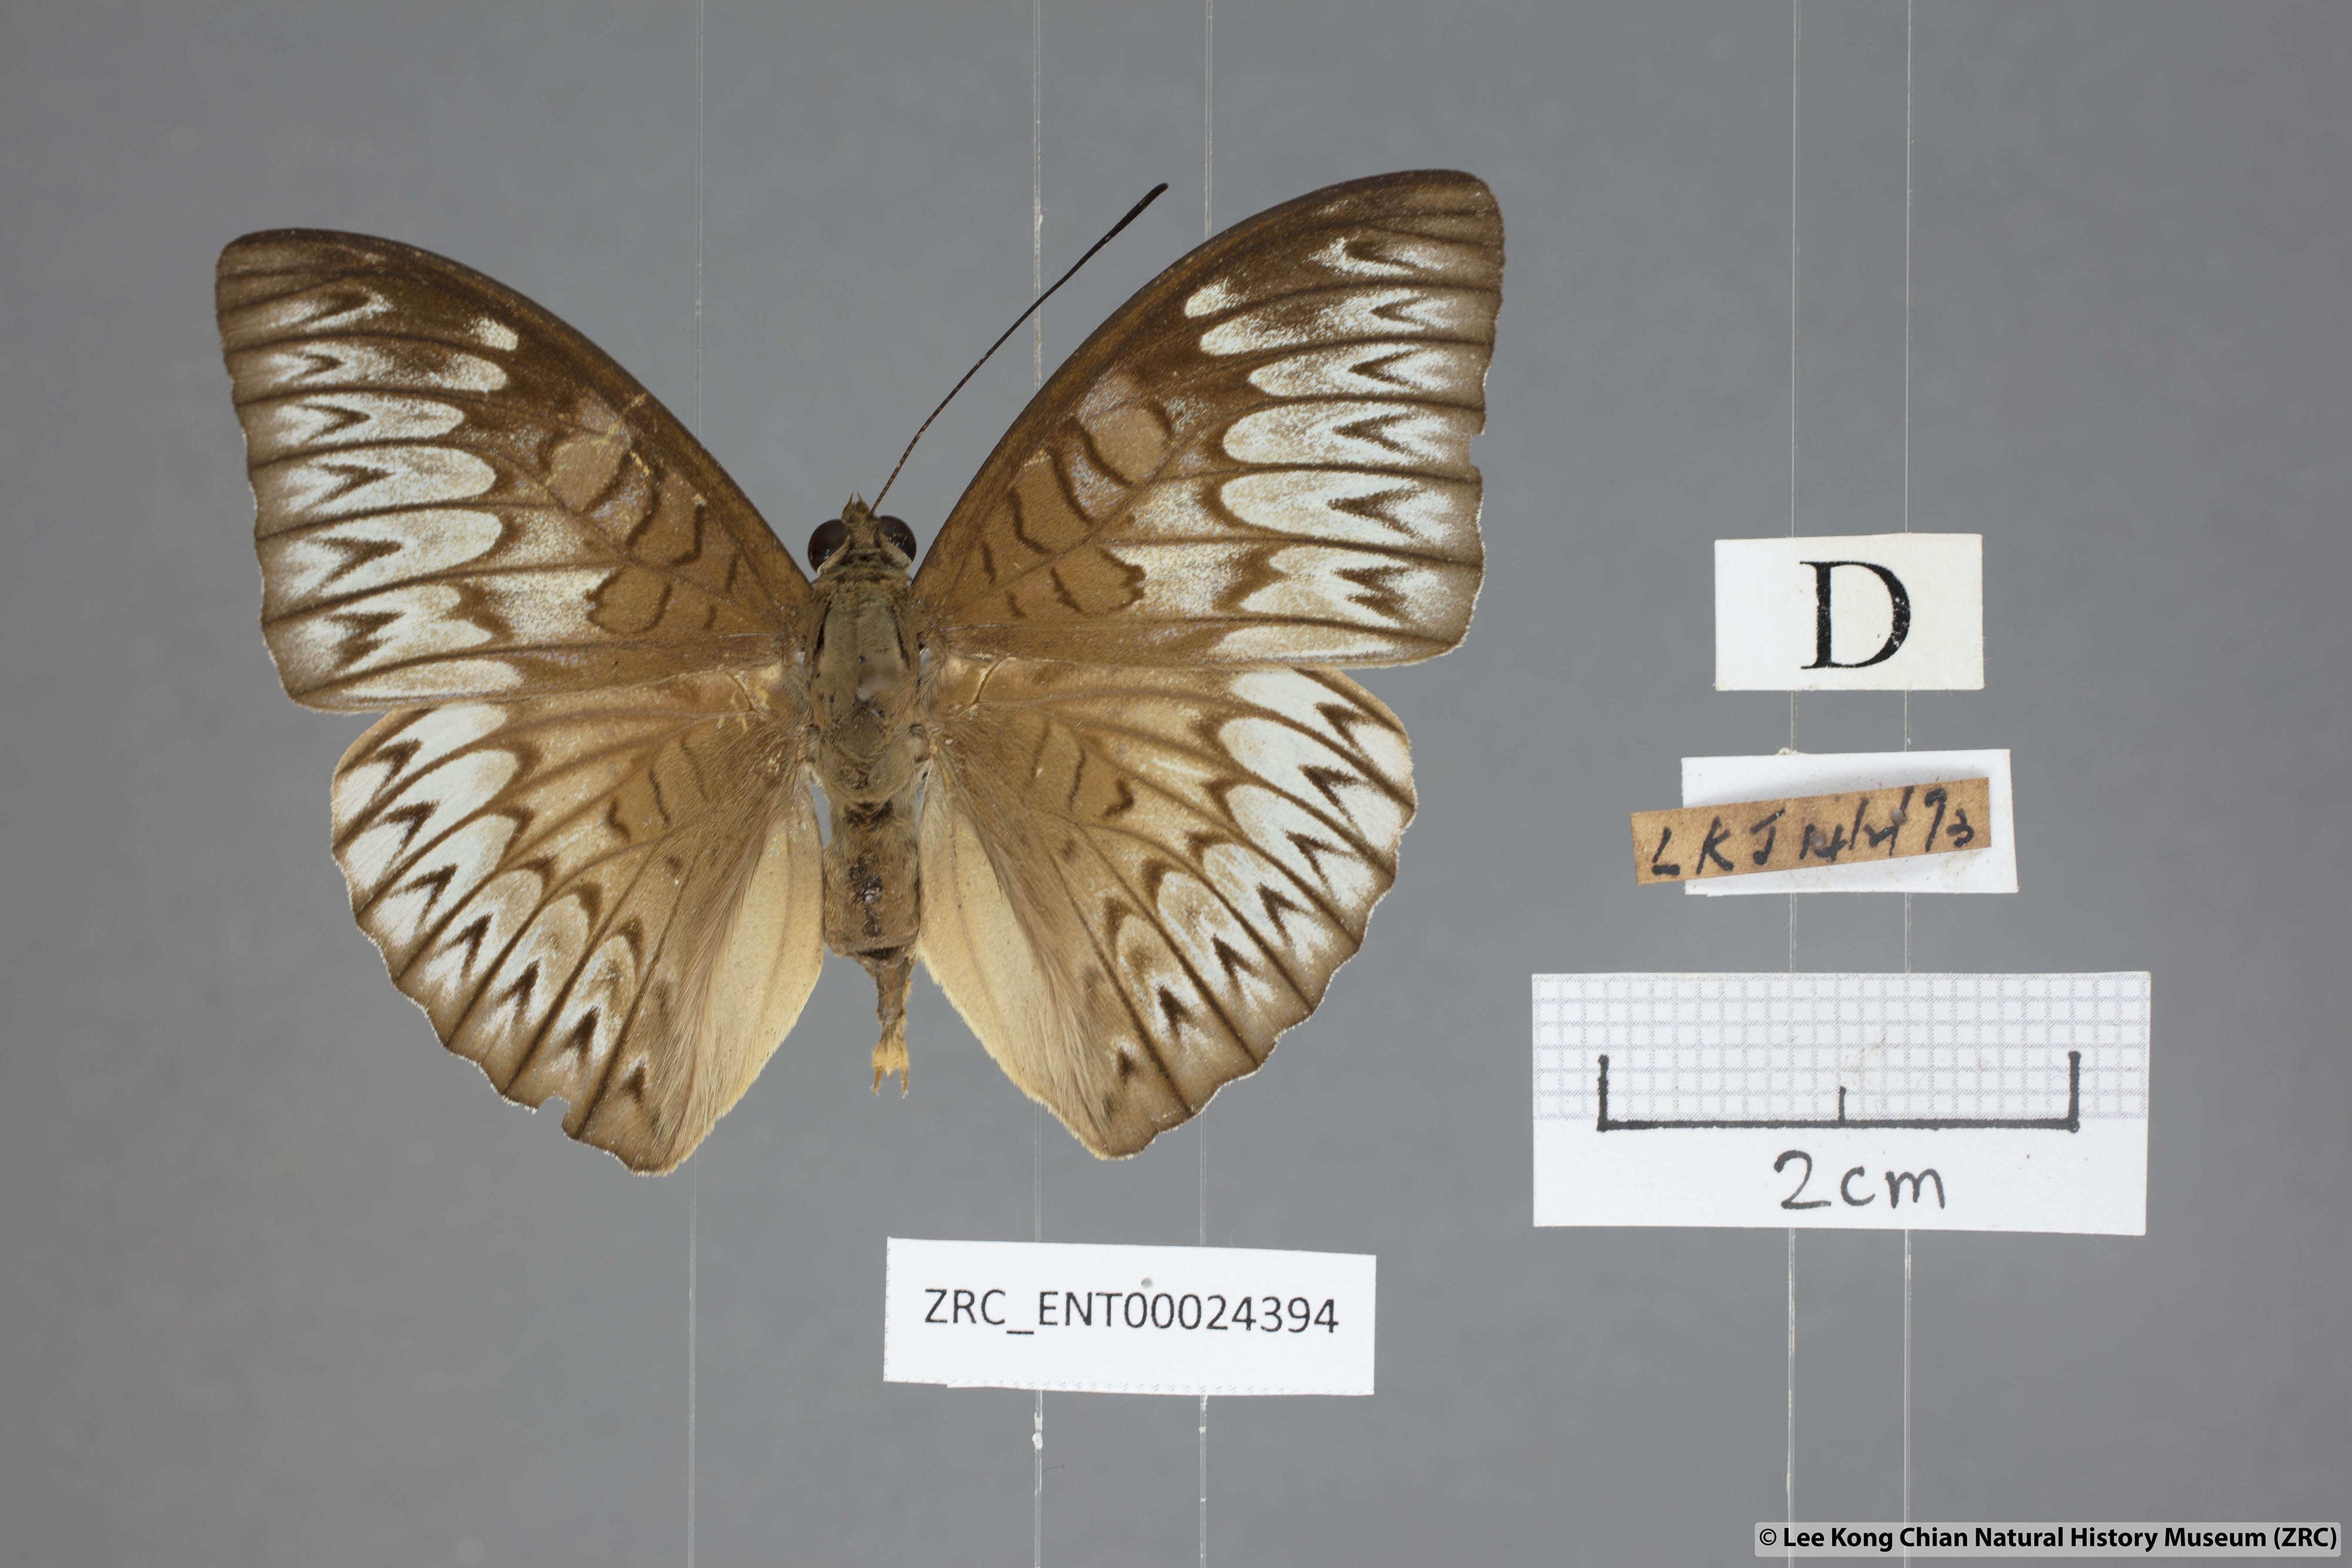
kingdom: Animalia
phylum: Arthropoda
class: Insecta
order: Lepidoptera
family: Nymphalidae
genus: Tanaecia
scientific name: Tanaecia munda
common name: Peninsular viscount
